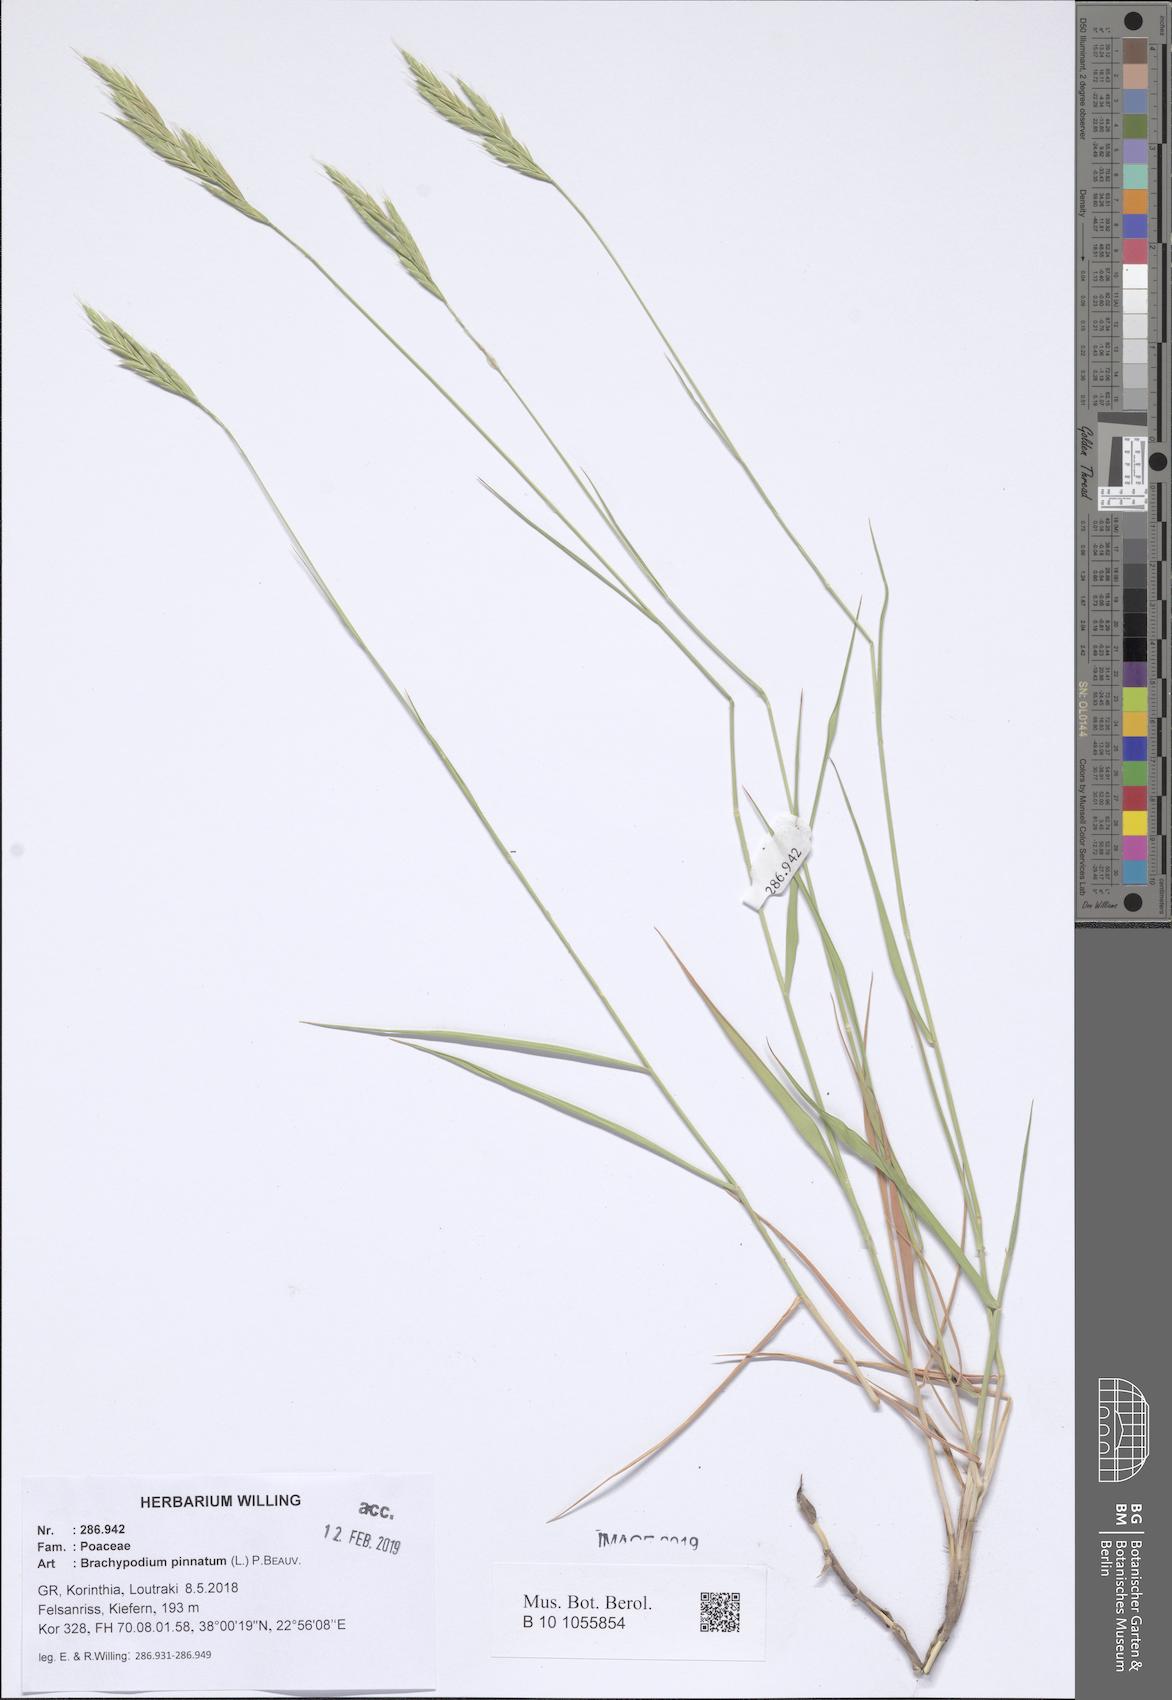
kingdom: Plantae
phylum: Tracheophyta
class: Liliopsida
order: Poales
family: Poaceae
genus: Brachypodium
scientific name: Brachypodium pinnatum
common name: Tor grass
